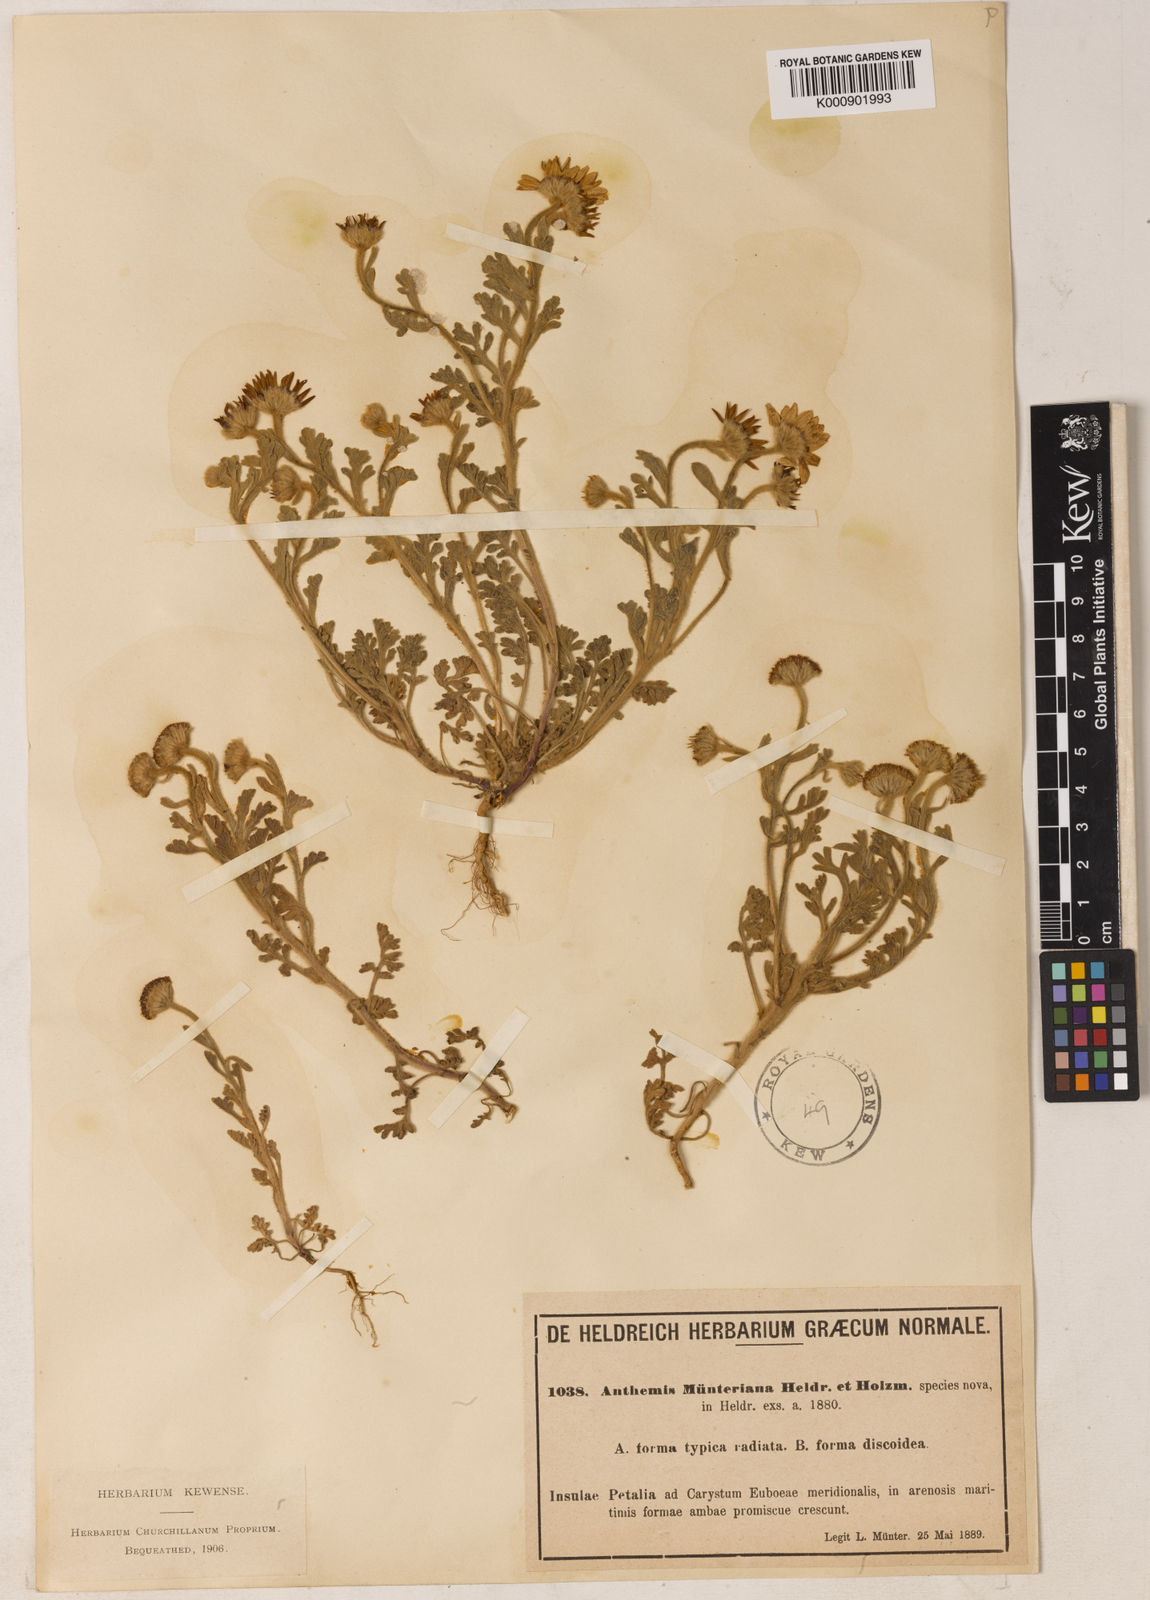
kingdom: Plantae
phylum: Tracheophyta
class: Magnoliopsida
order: Asterales
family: Asteraceae
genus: Anthemis
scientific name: Anthemis tomentosa
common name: Woolly chamomile
